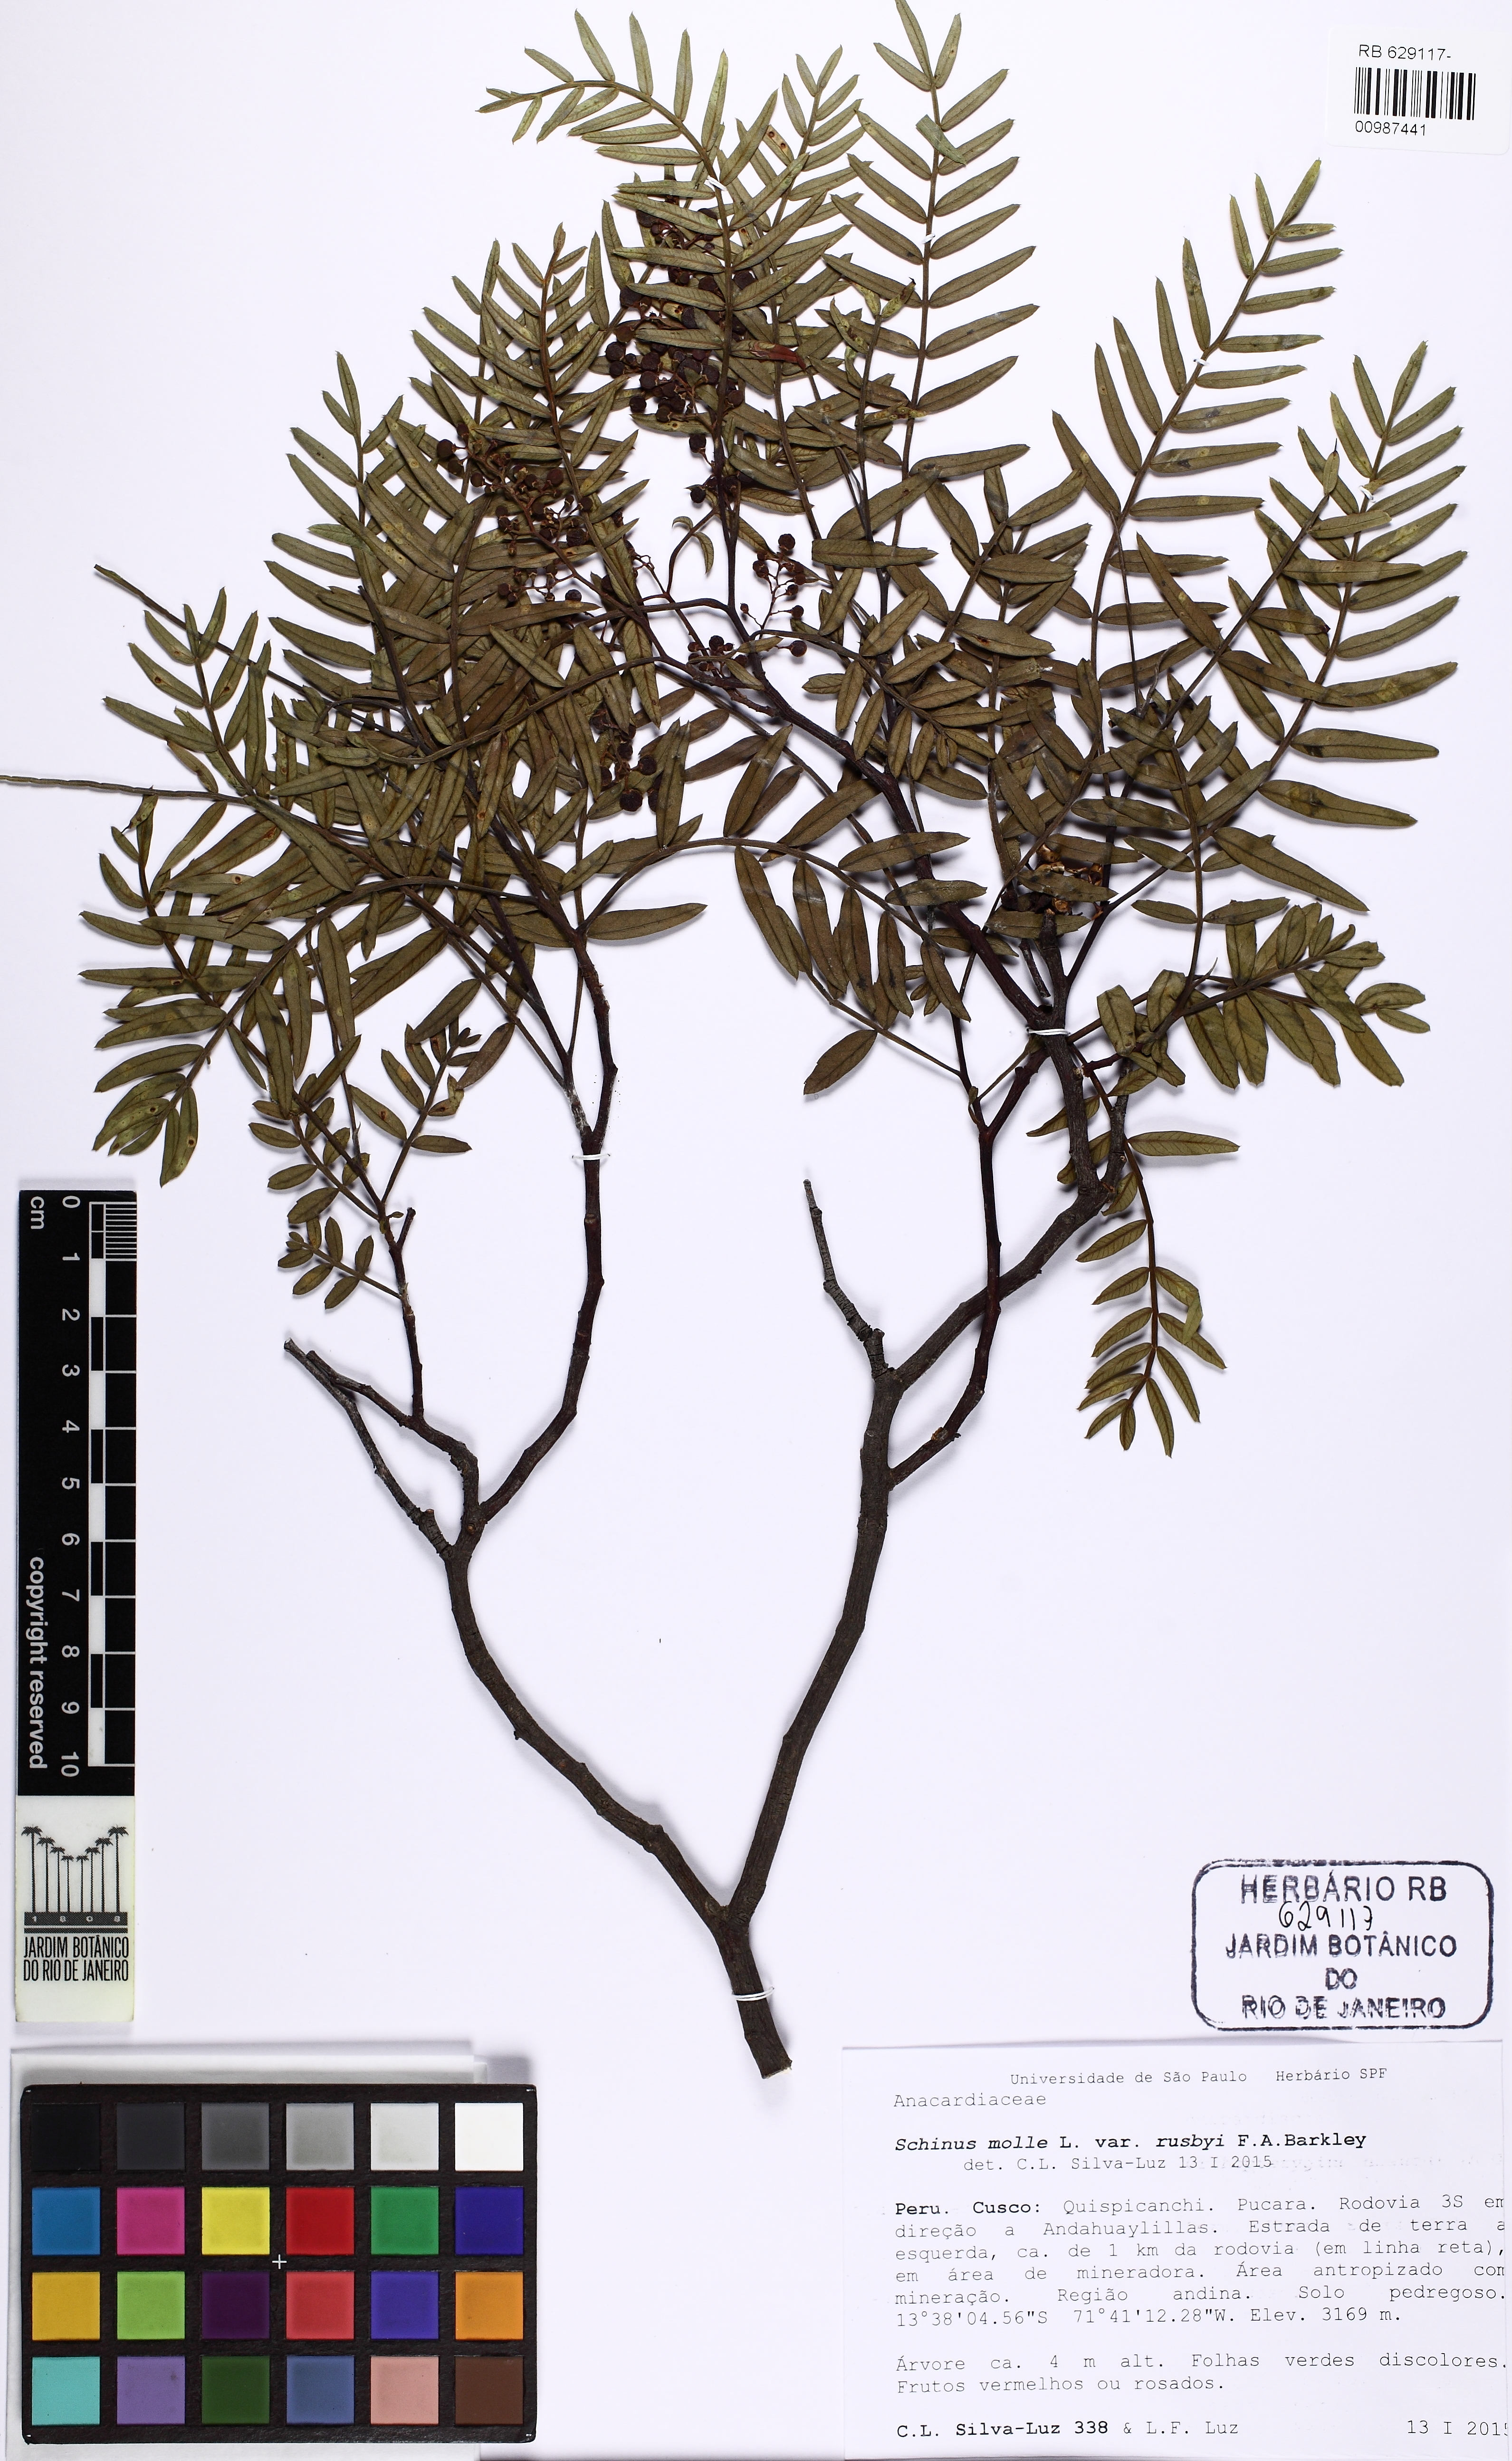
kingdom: Plantae
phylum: Tracheophyta
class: Magnoliopsida
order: Sapindales
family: Anacardiaceae
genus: Schinus
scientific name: Schinus molle
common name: Peruvian peppertree
